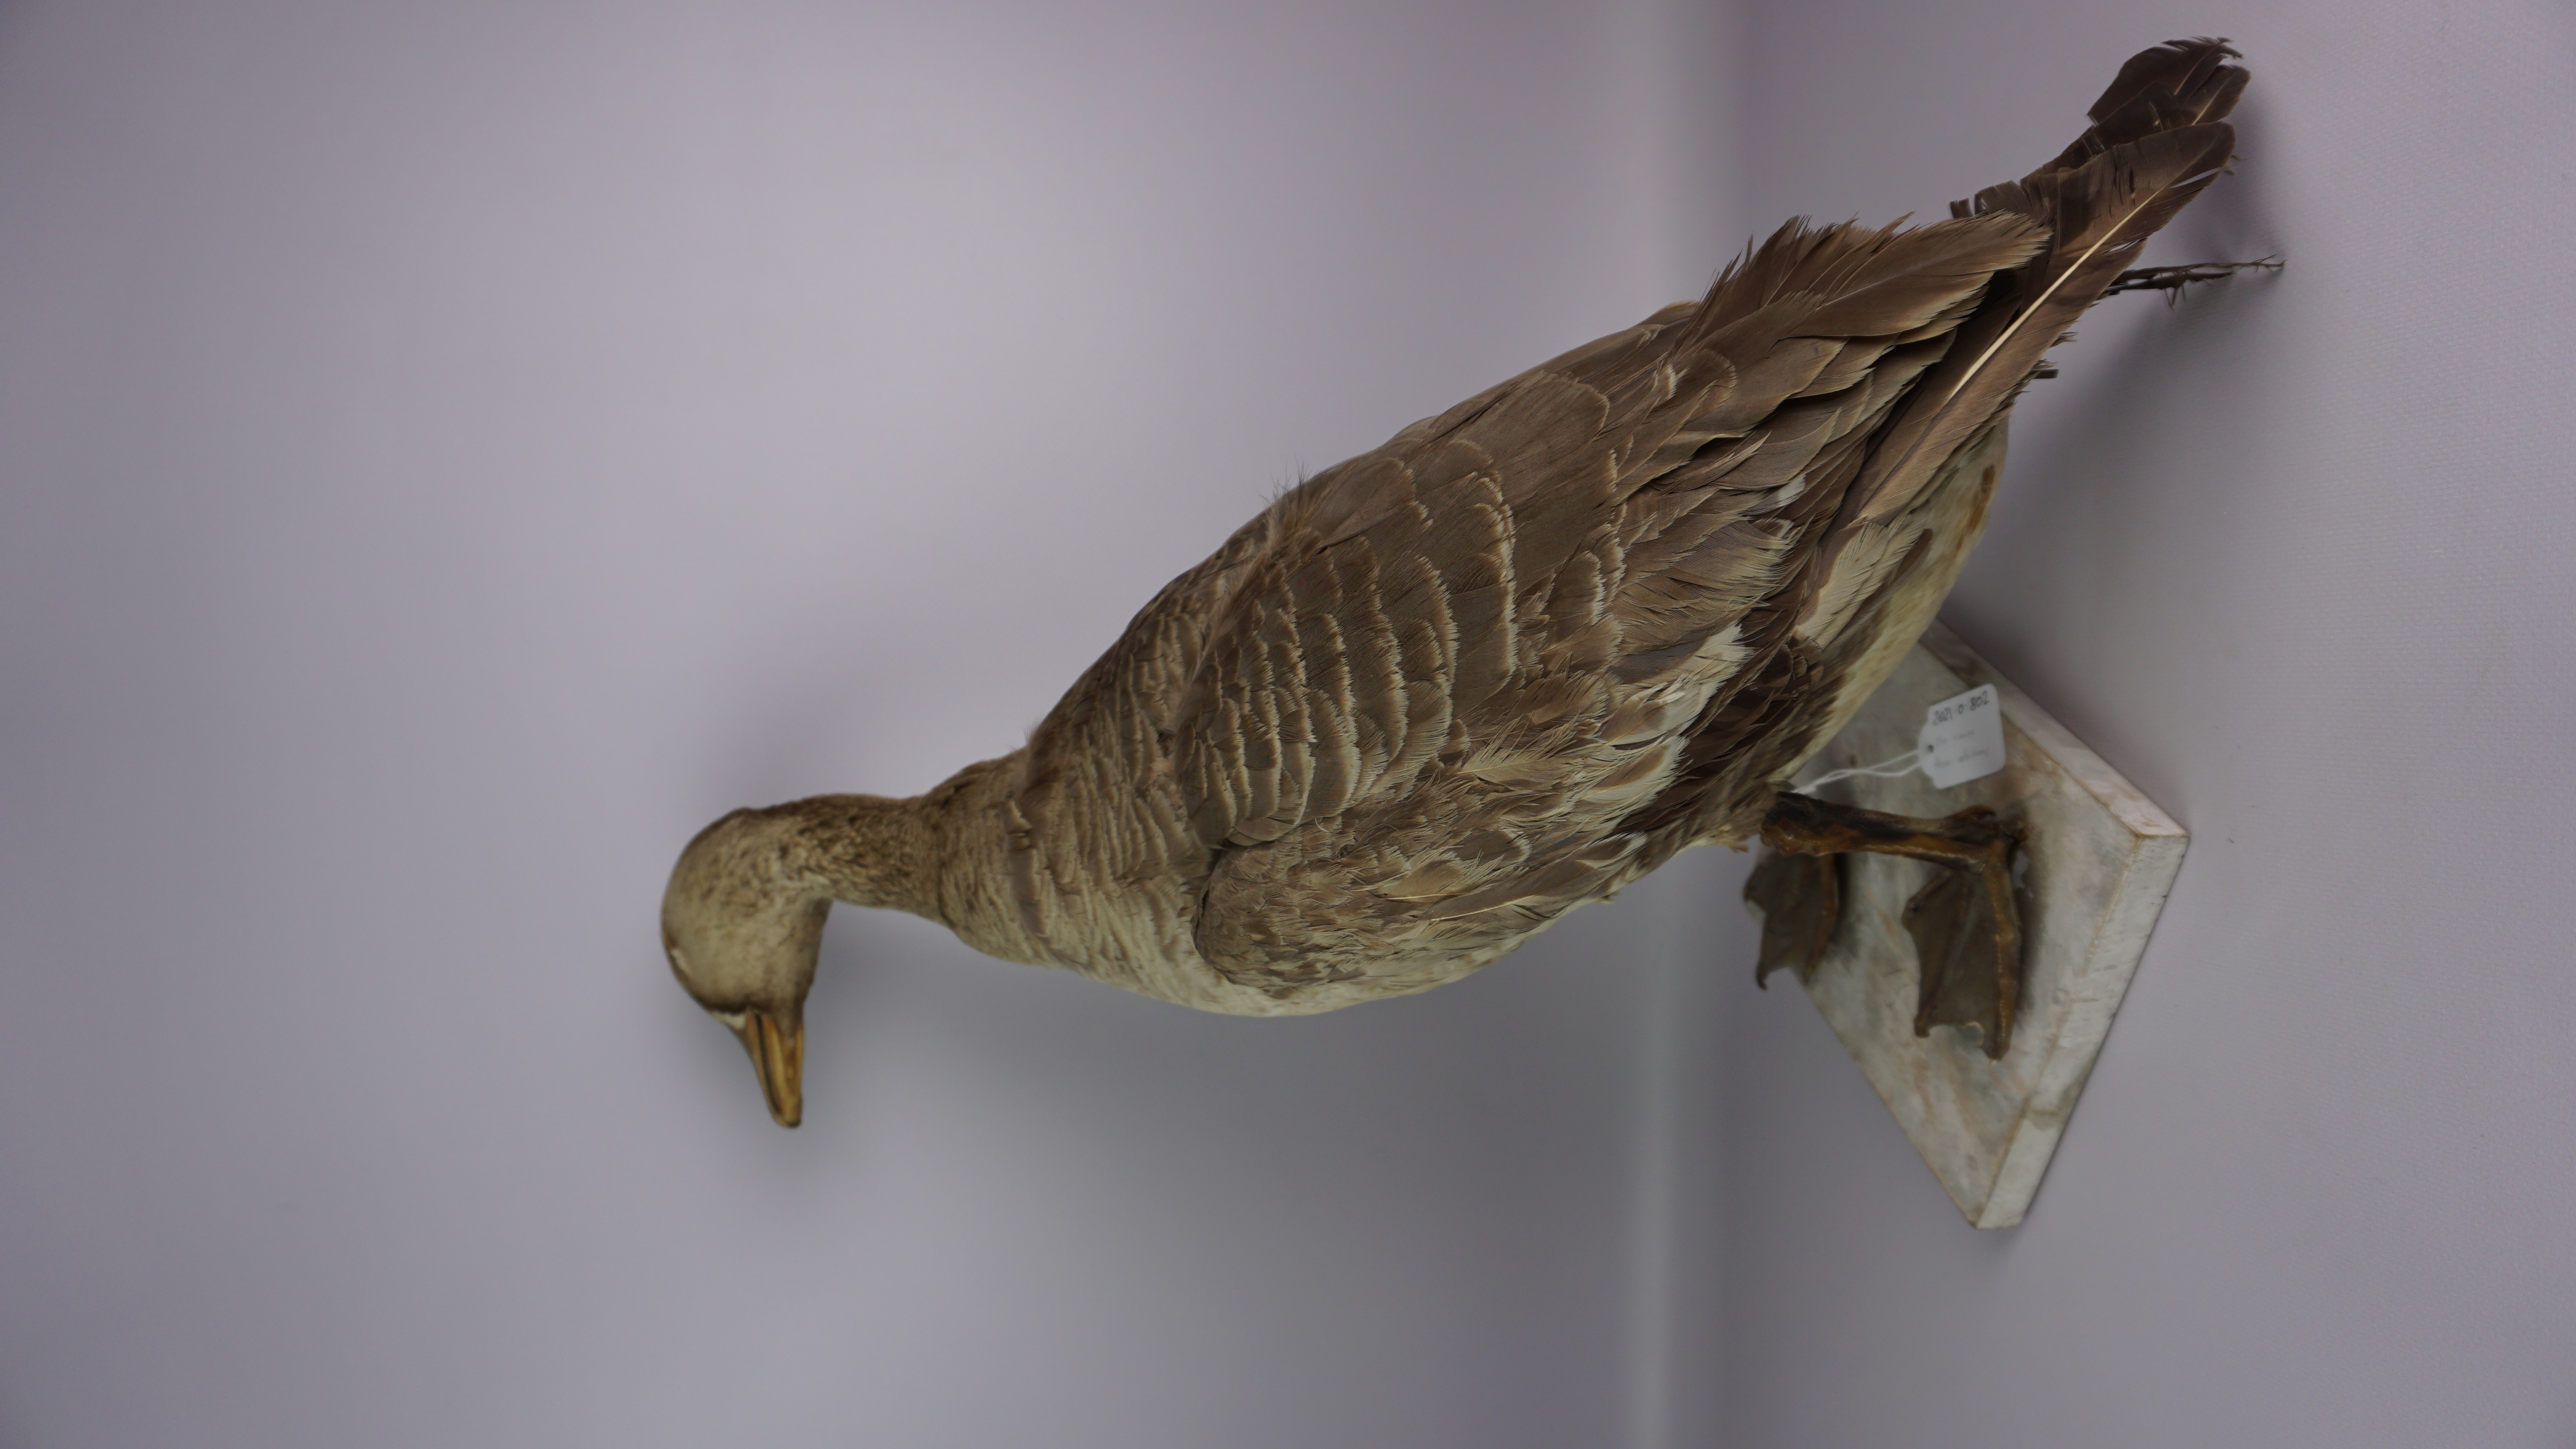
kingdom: Animalia
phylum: Chordata
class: Aves
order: Anseriformes
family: Anatidae
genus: Anser
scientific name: Anser albifrons
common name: Greater white-fronted goose
